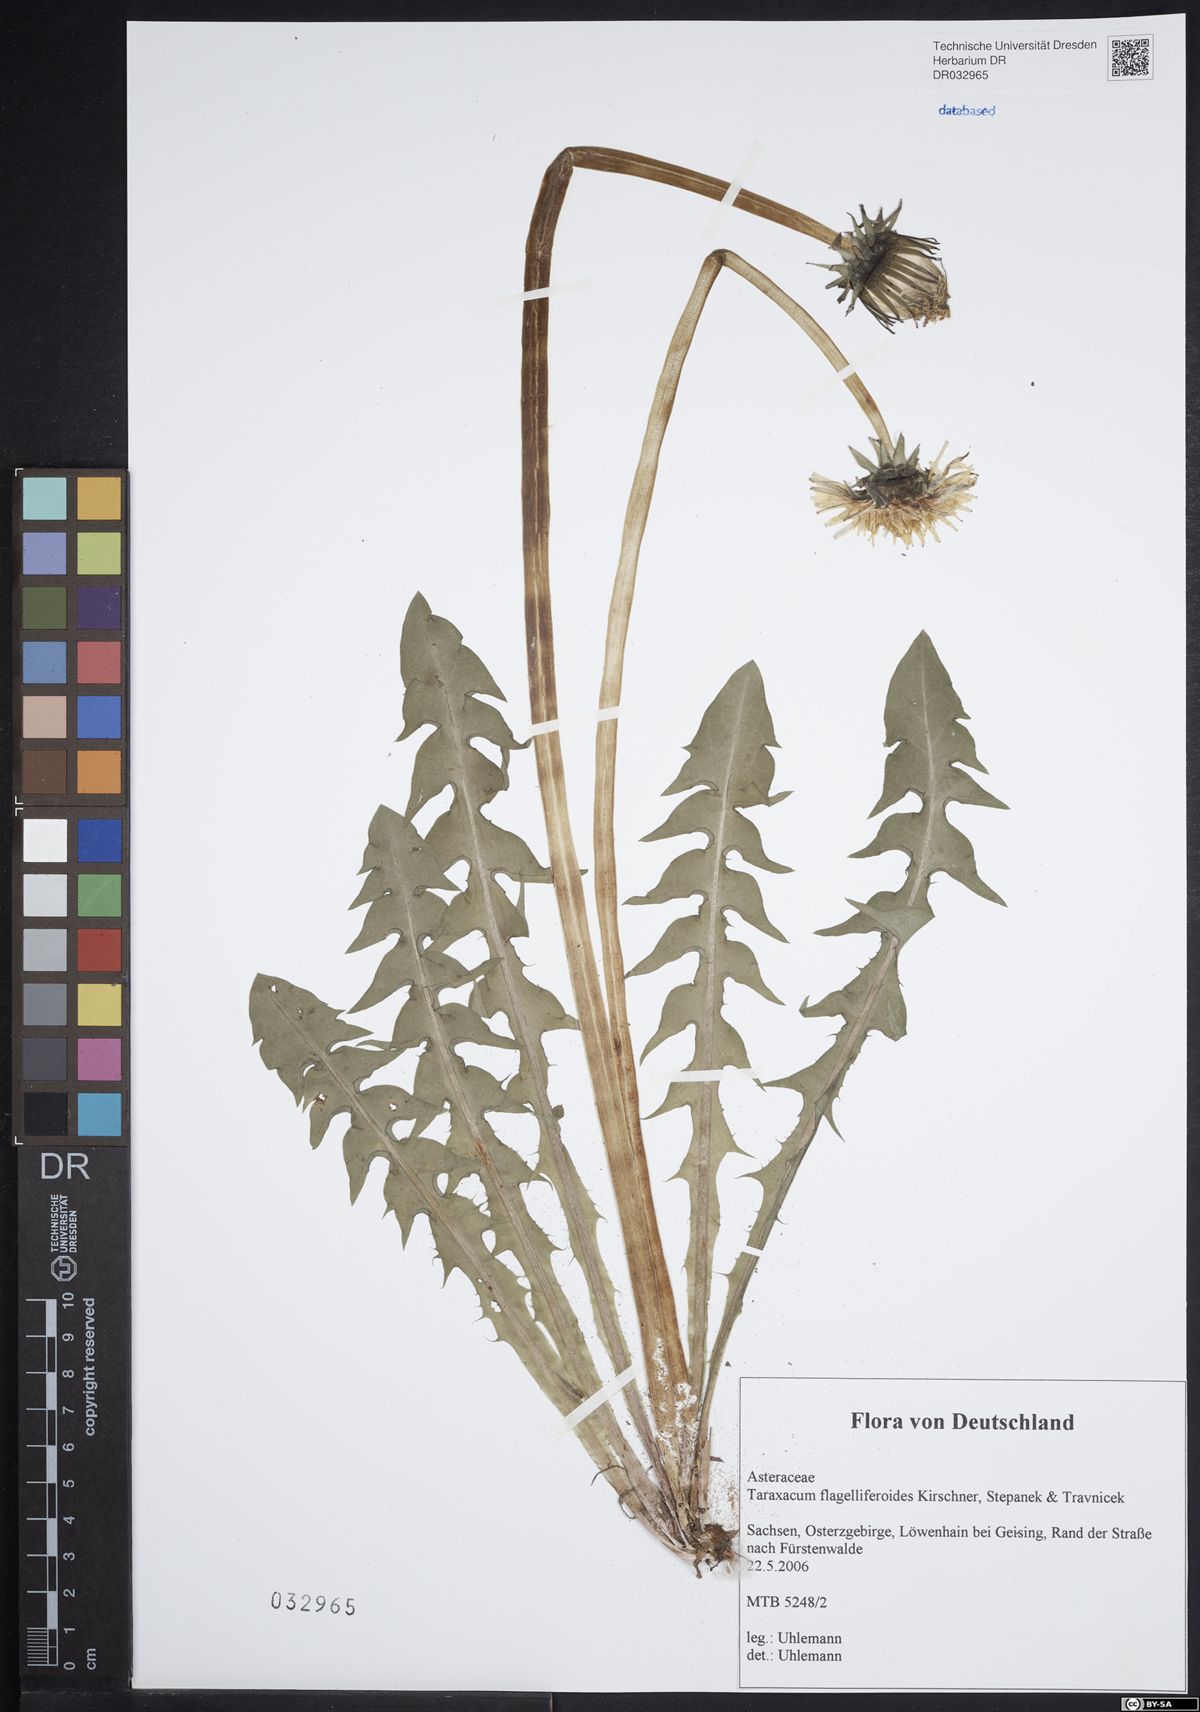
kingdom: Plantae
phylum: Tracheophyta
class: Magnoliopsida
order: Asterales
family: Asteraceae
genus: Taraxacum
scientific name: Taraxacum
